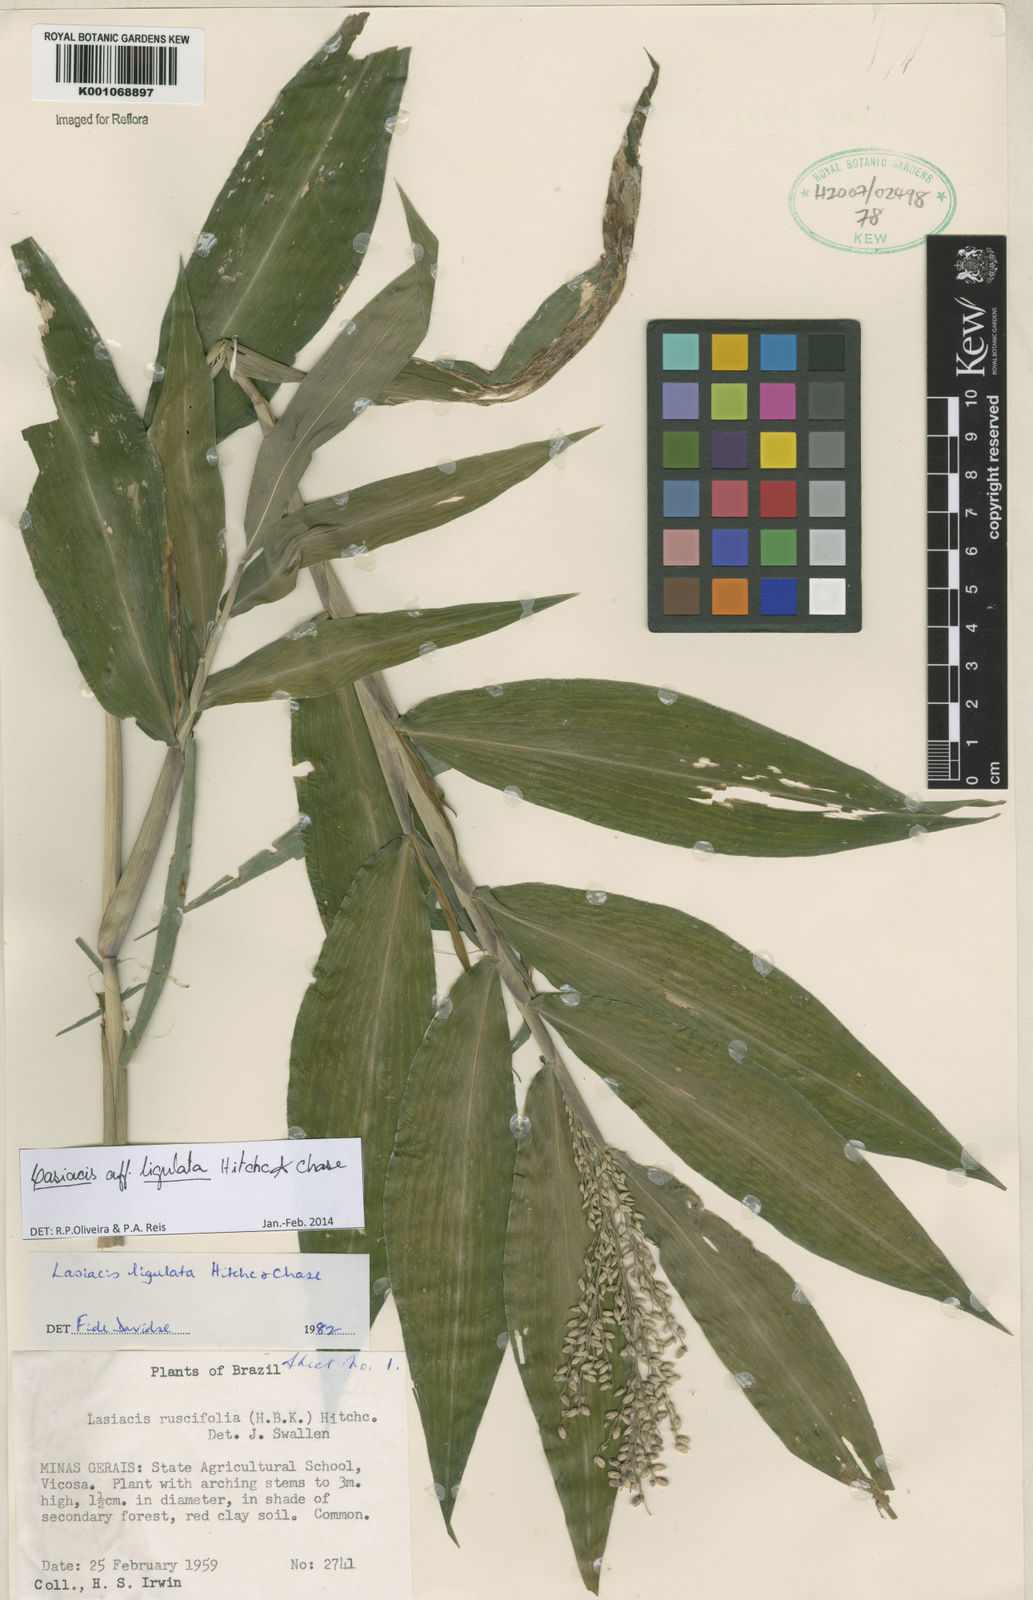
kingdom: Plantae
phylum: Tracheophyta
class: Liliopsida
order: Poales
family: Poaceae
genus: Lasiacis
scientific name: Lasiacis ligulata
